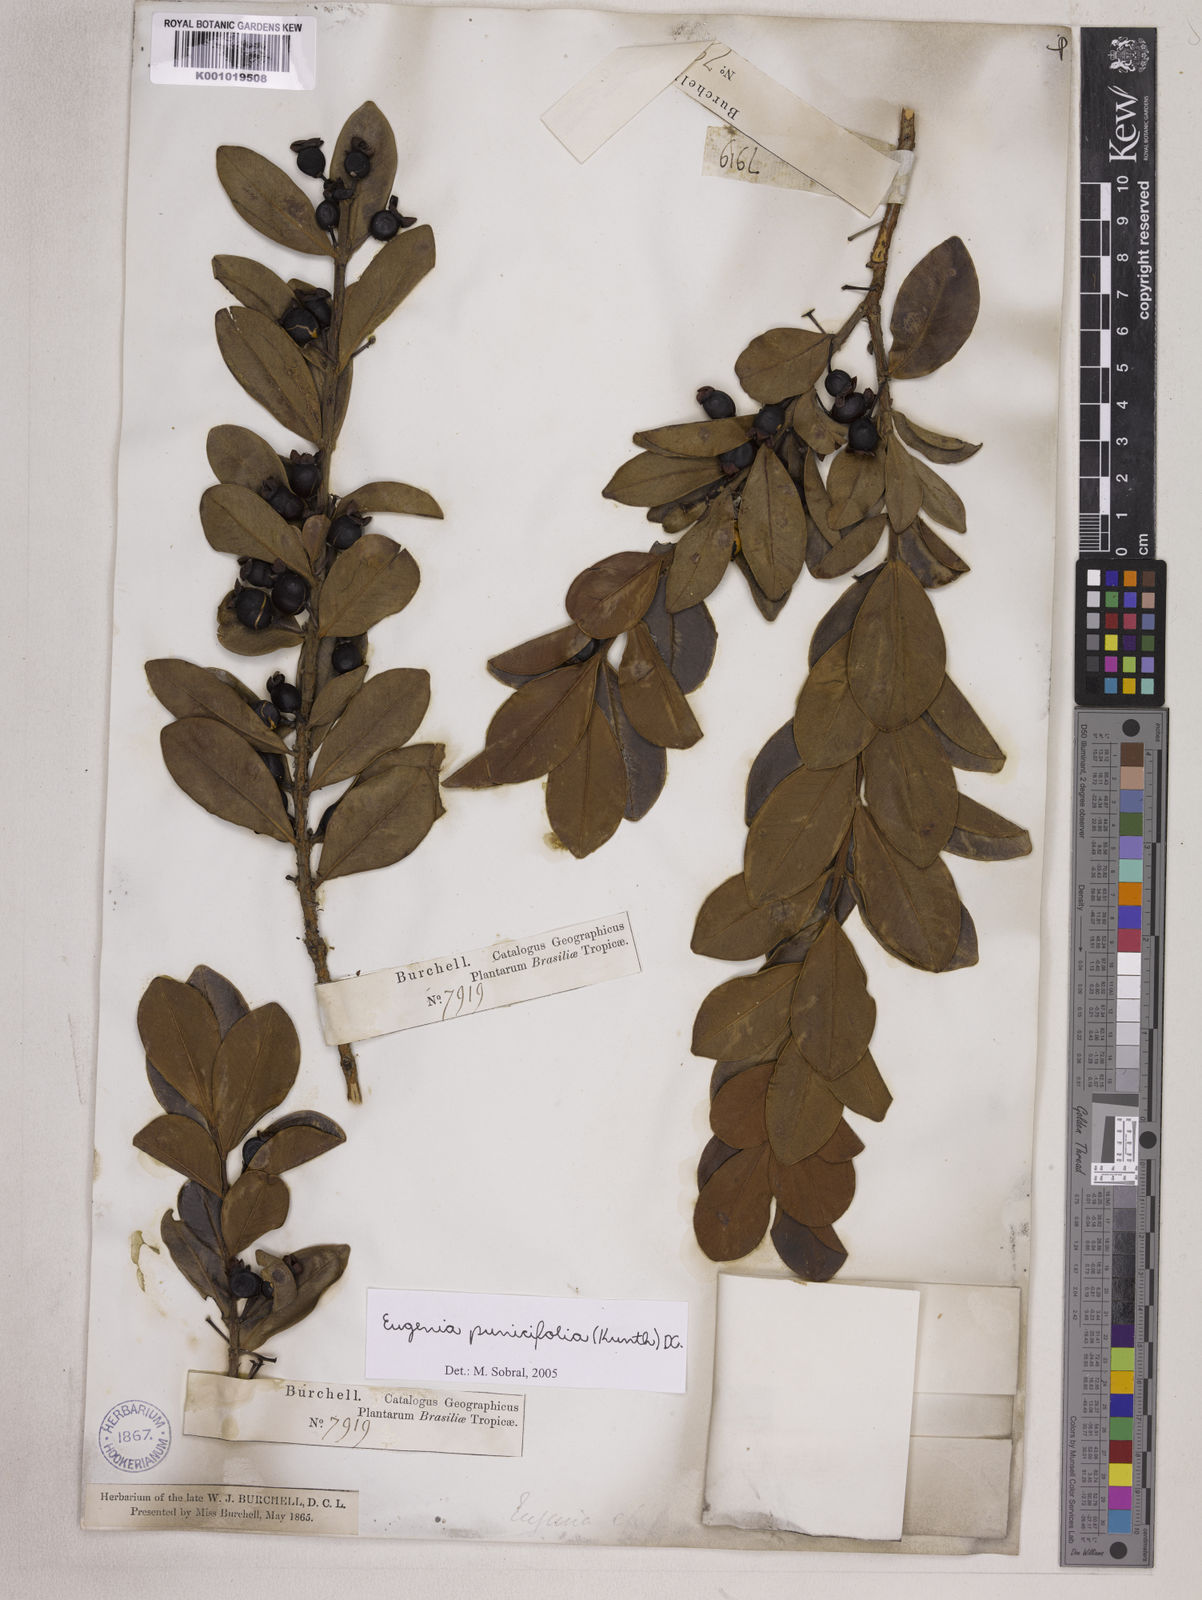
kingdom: Plantae
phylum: Tracheophyta
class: Magnoliopsida
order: Myrtales
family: Myrtaceae
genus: Eugenia
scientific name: Eugenia punicifolia
